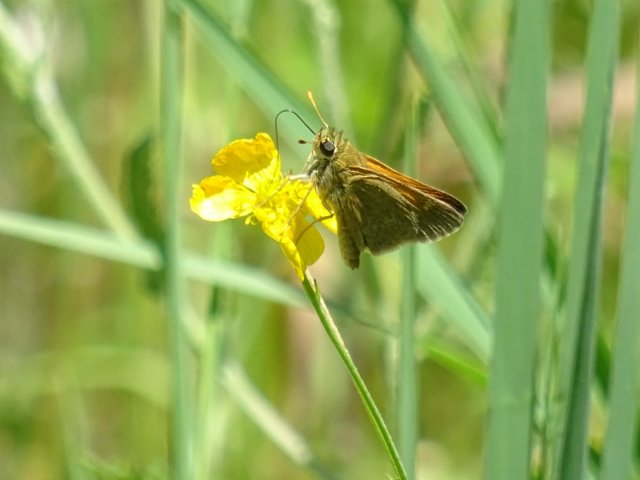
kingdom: Animalia
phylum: Arthropoda
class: Insecta
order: Lepidoptera
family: Hesperiidae
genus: Polites
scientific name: Polites themistocles
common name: Tawny-edged Skipper
